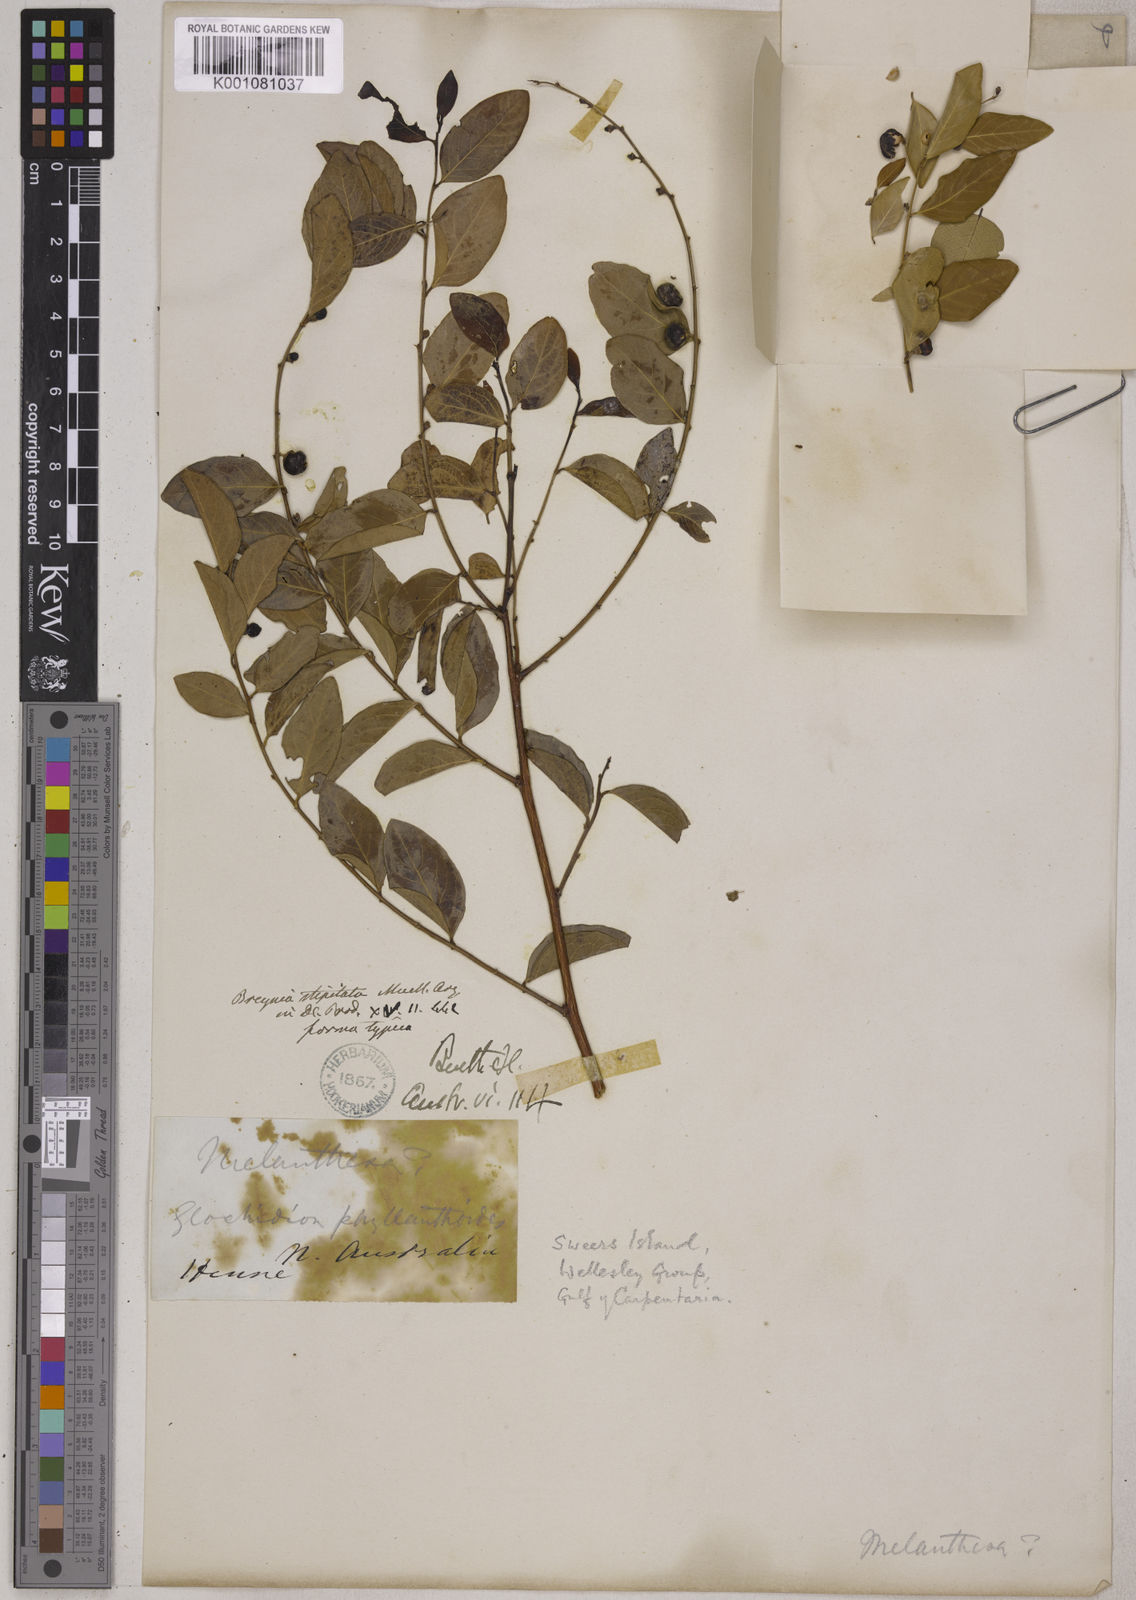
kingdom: Plantae
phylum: Tracheophyta
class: Magnoliopsida
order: Malpighiales
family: Phyllanthaceae
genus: Breynia
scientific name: Breynia
